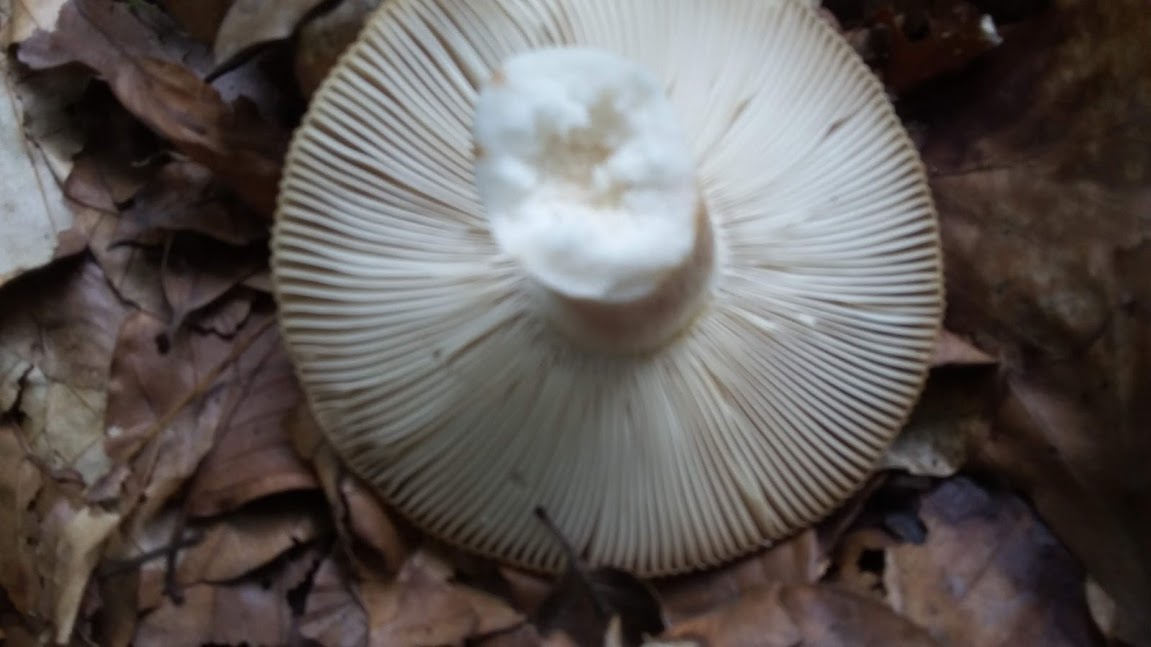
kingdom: Fungi
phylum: Basidiomycota
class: Agaricomycetes
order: Russulales
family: Russulaceae
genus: Russula
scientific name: Russula grata
